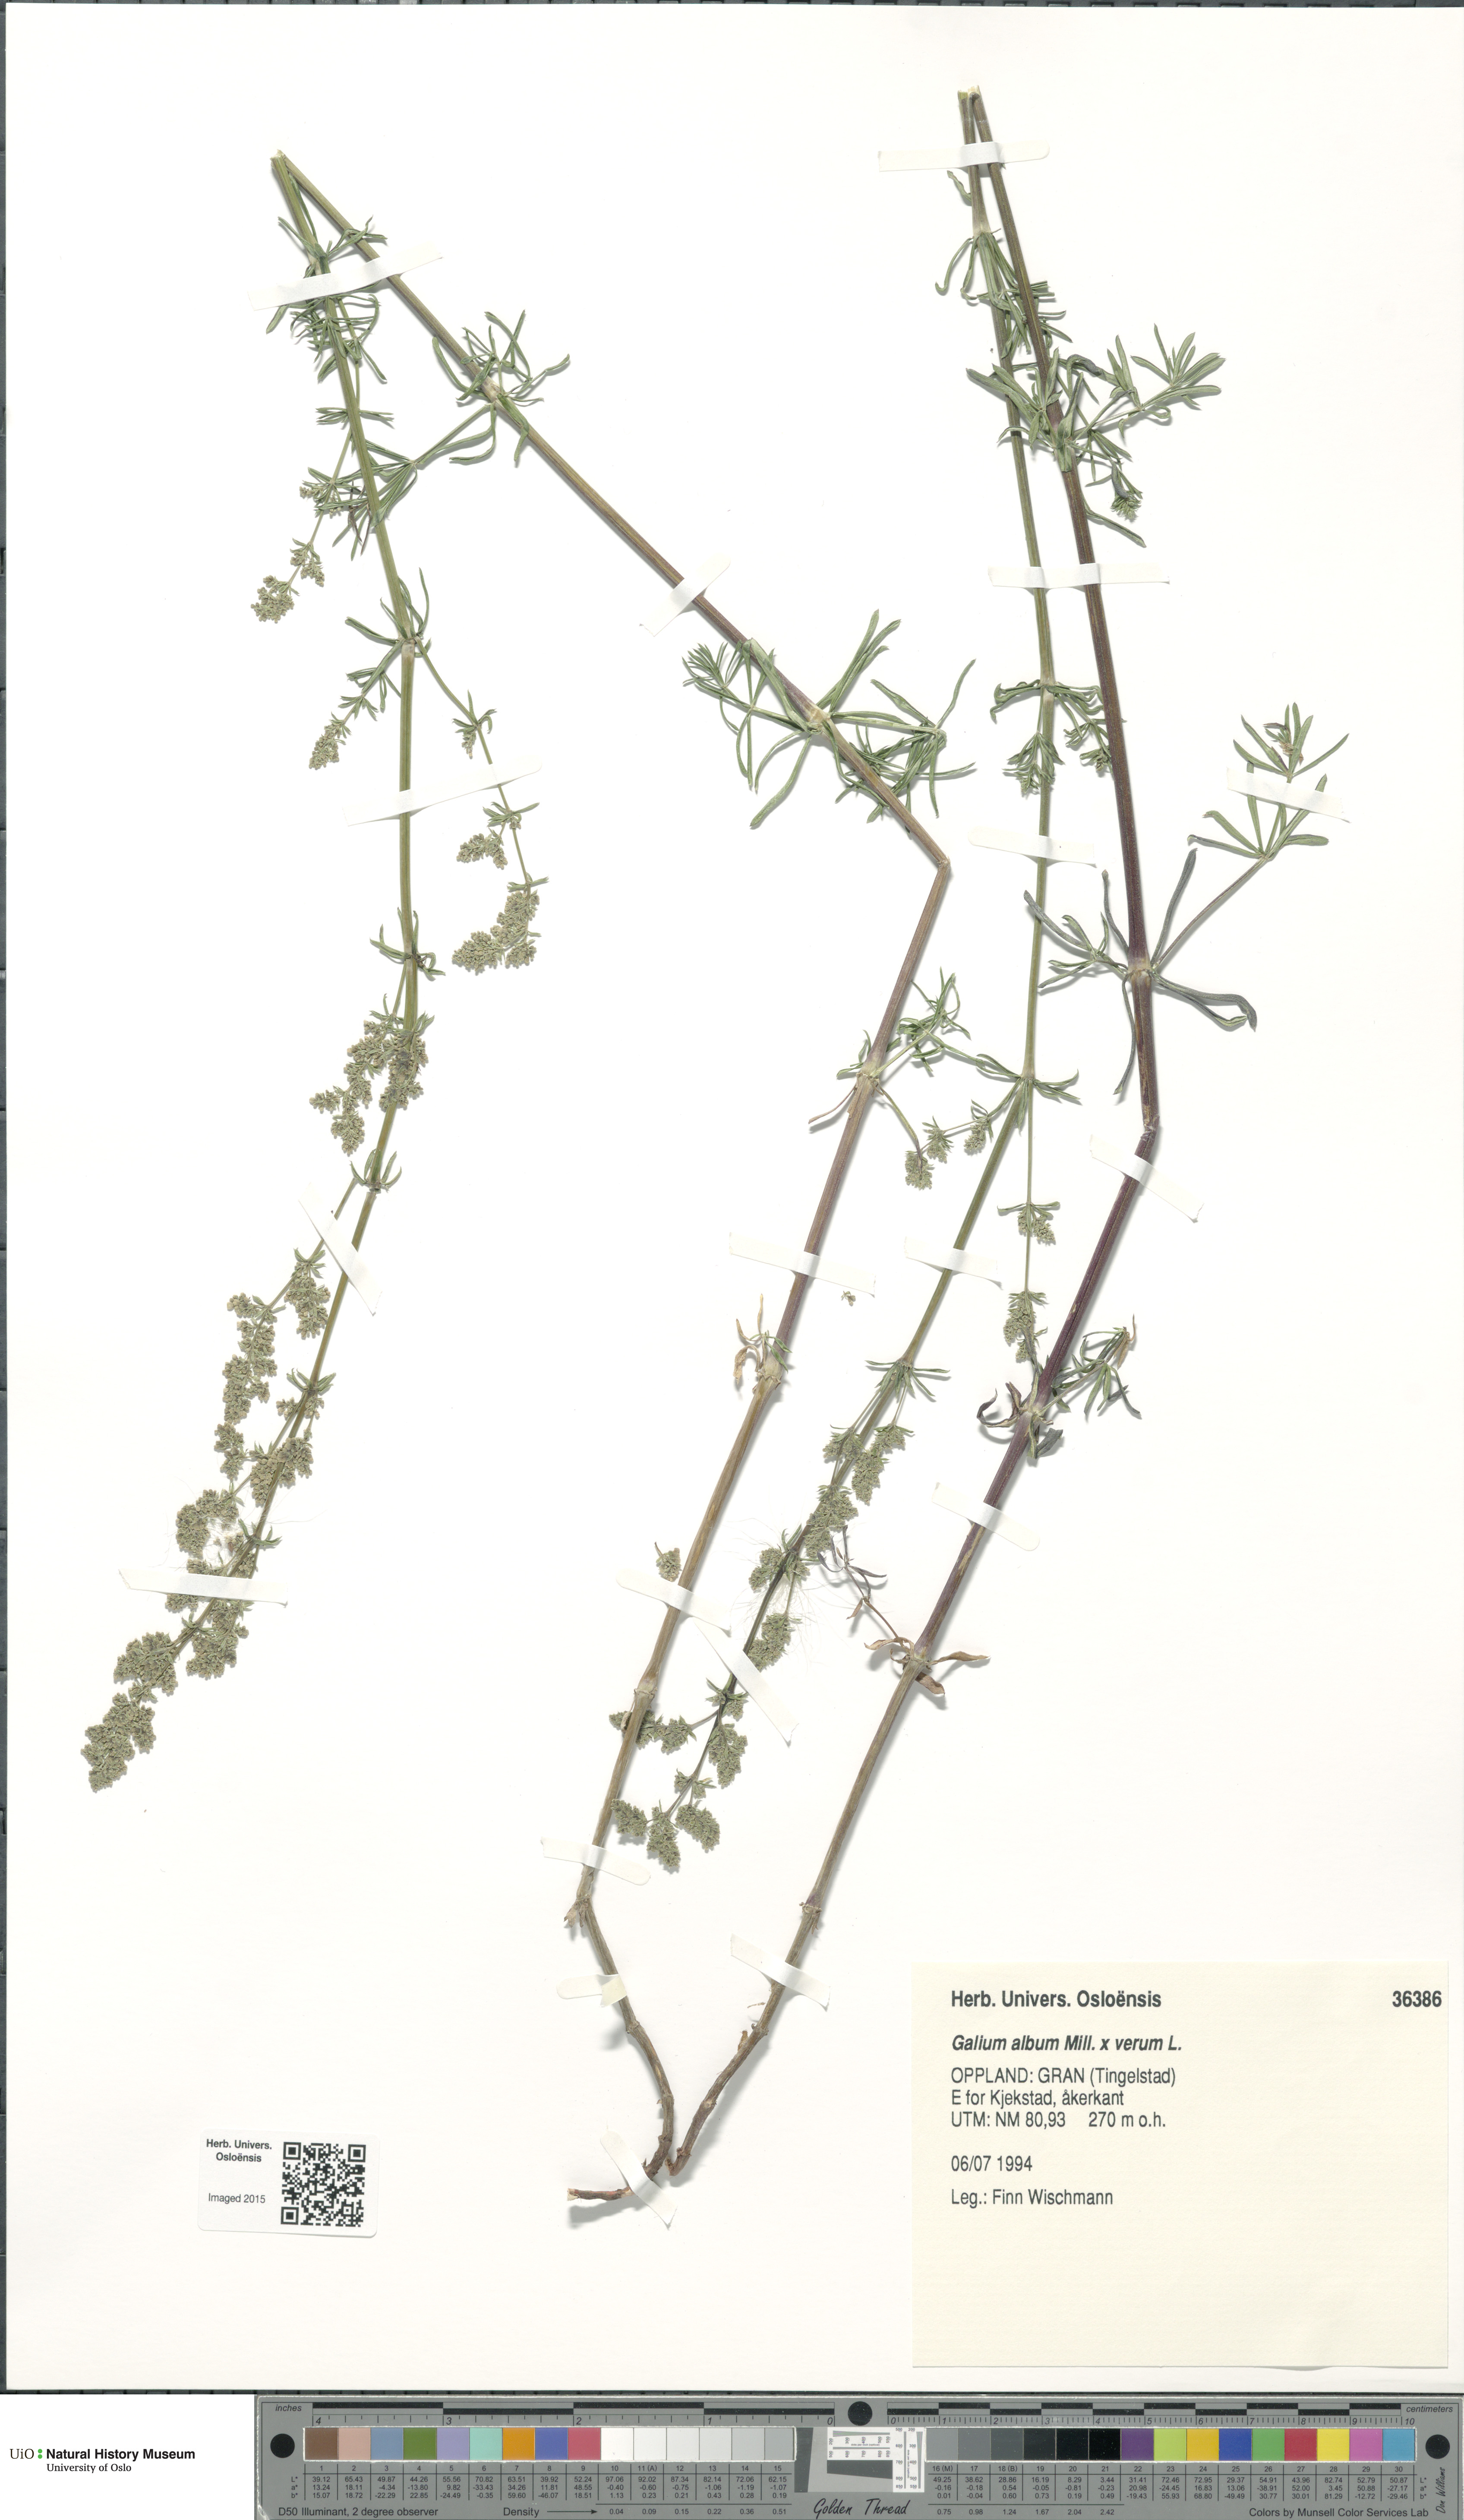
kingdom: Plantae
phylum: Tracheophyta
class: Magnoliopsida
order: Gentianales
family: Rubiaceae
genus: Galium
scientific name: Galium
